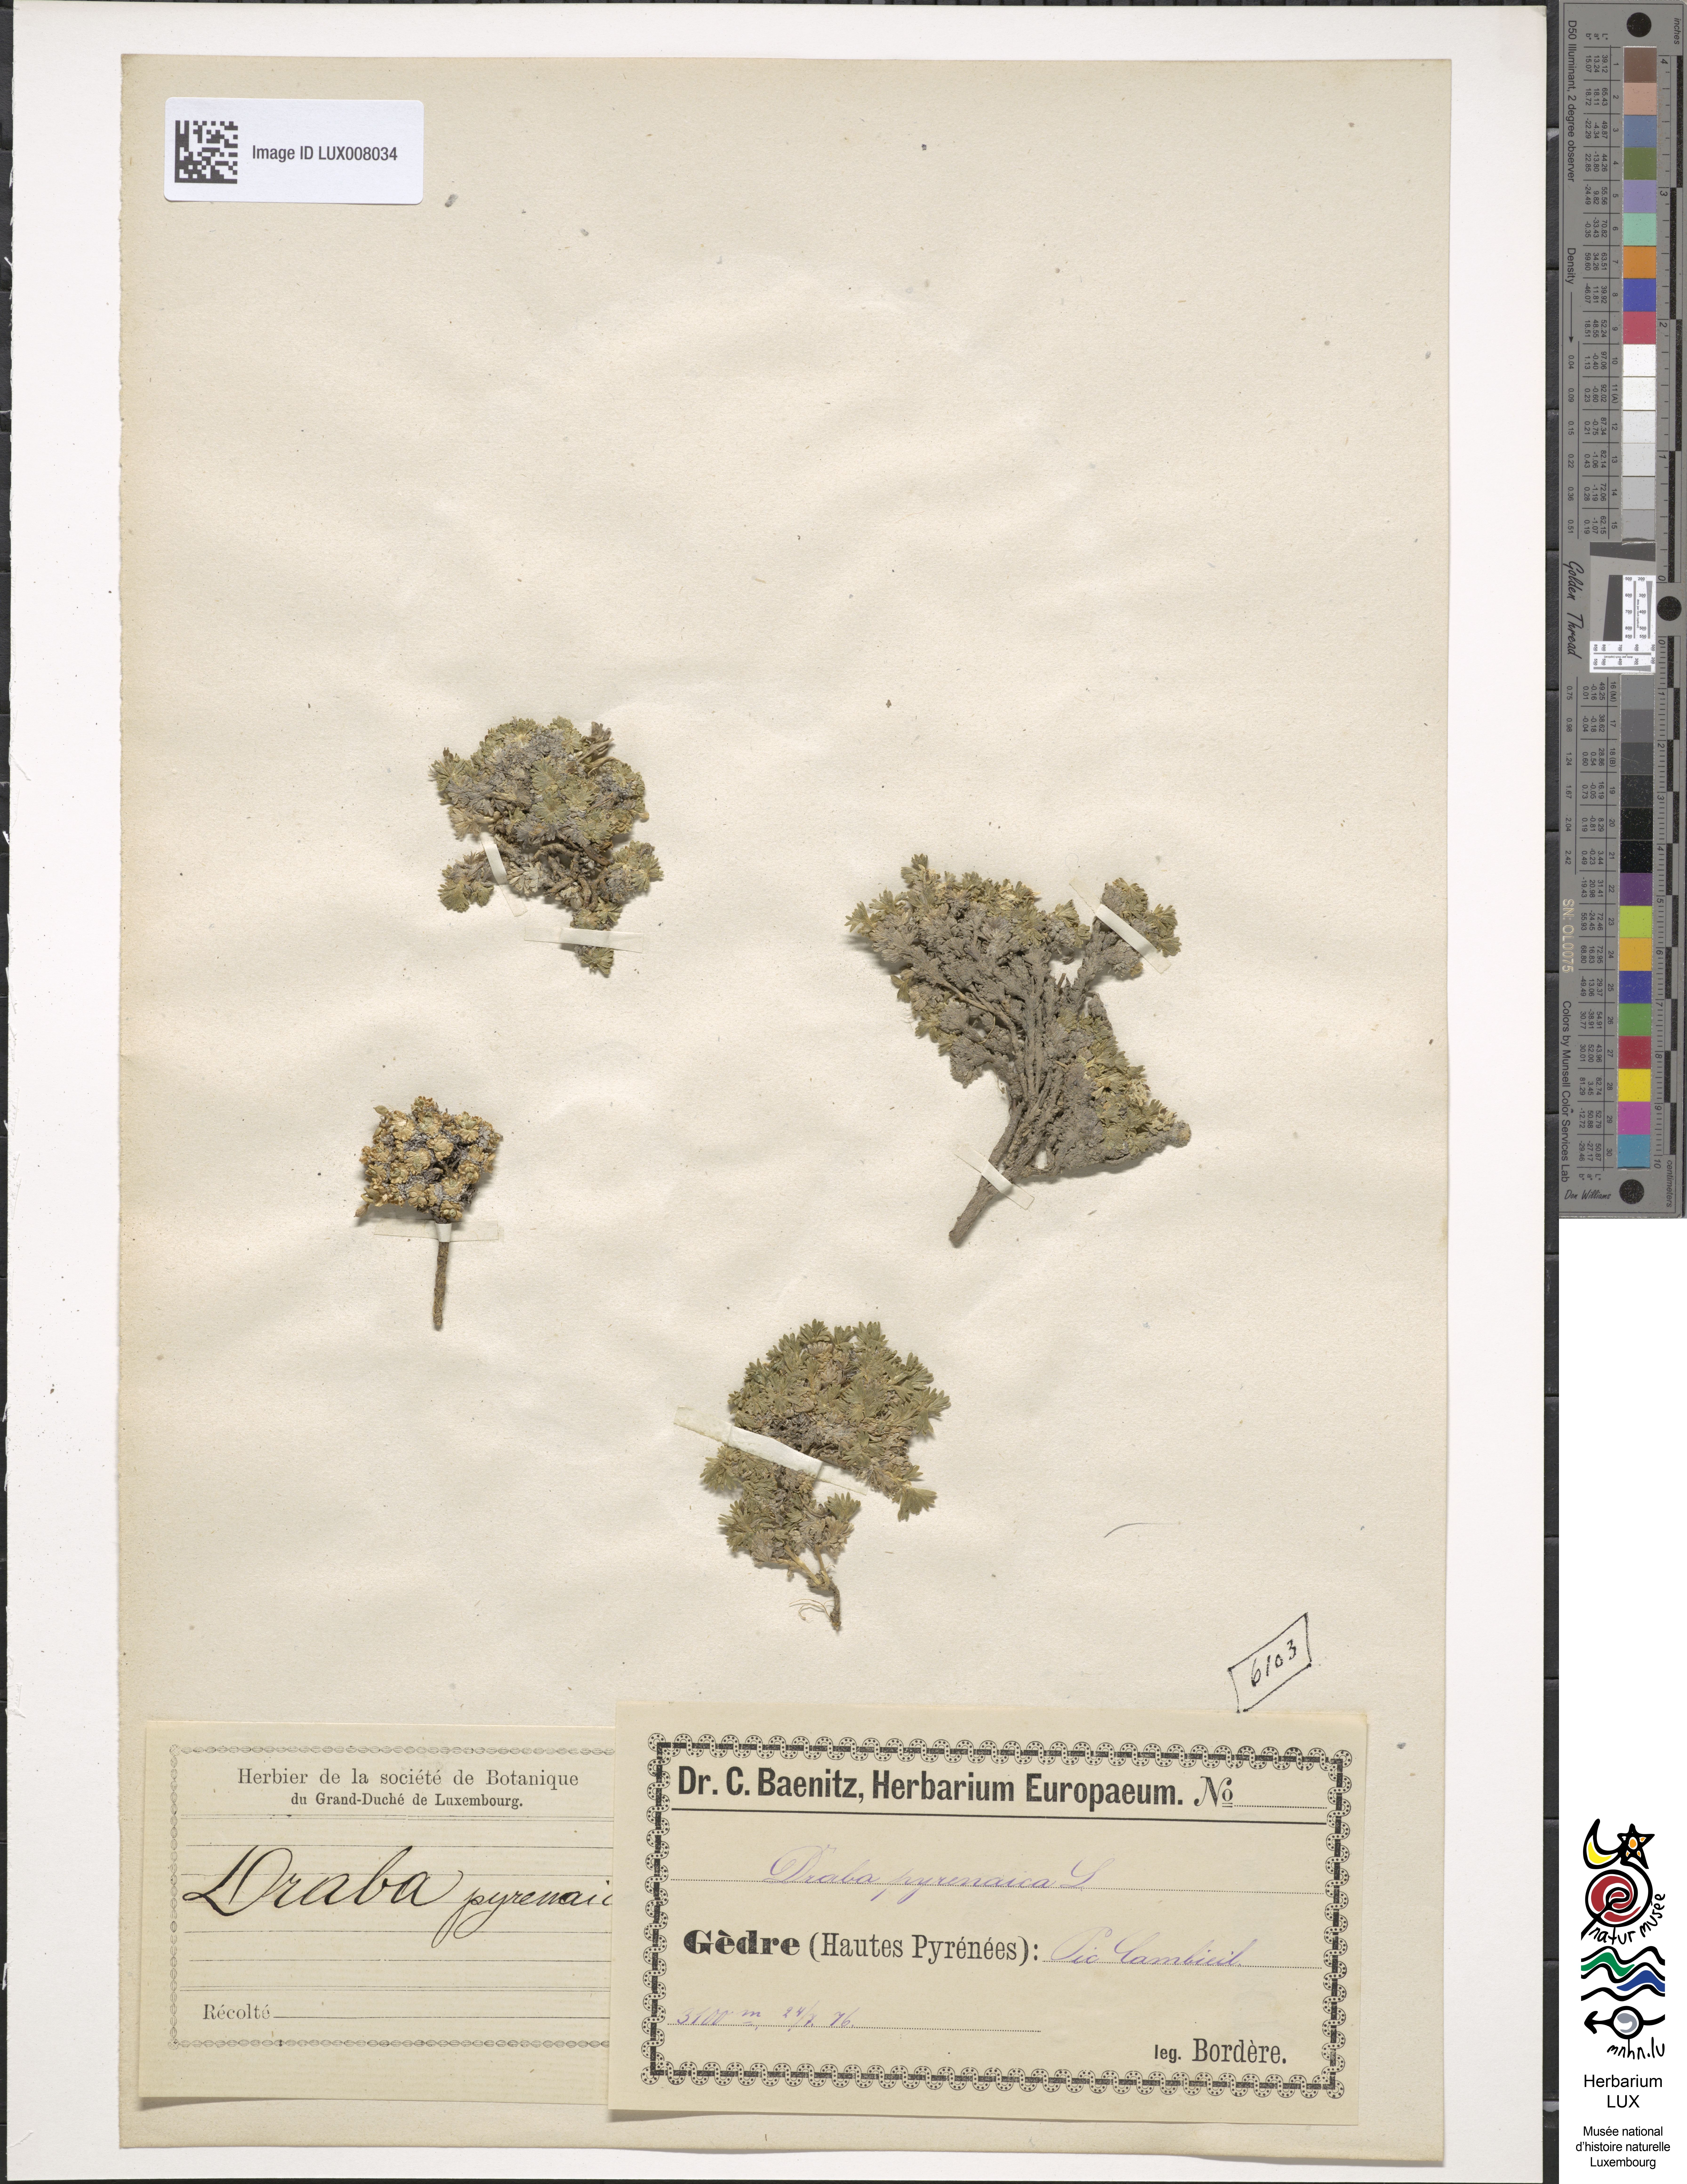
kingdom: Plantae
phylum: Tracheophyta
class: Magnoliopsida
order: Brassicales
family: Brassicaceae
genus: Petrocallis
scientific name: Petrocallis pyrenaica
